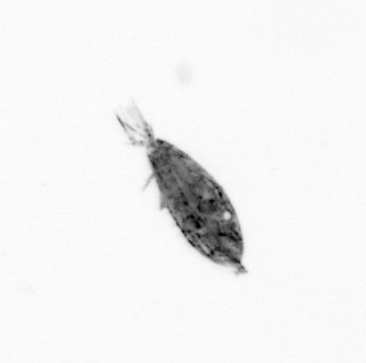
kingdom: Animalia
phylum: Arthropoda
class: Copepoda
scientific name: Copepoda
